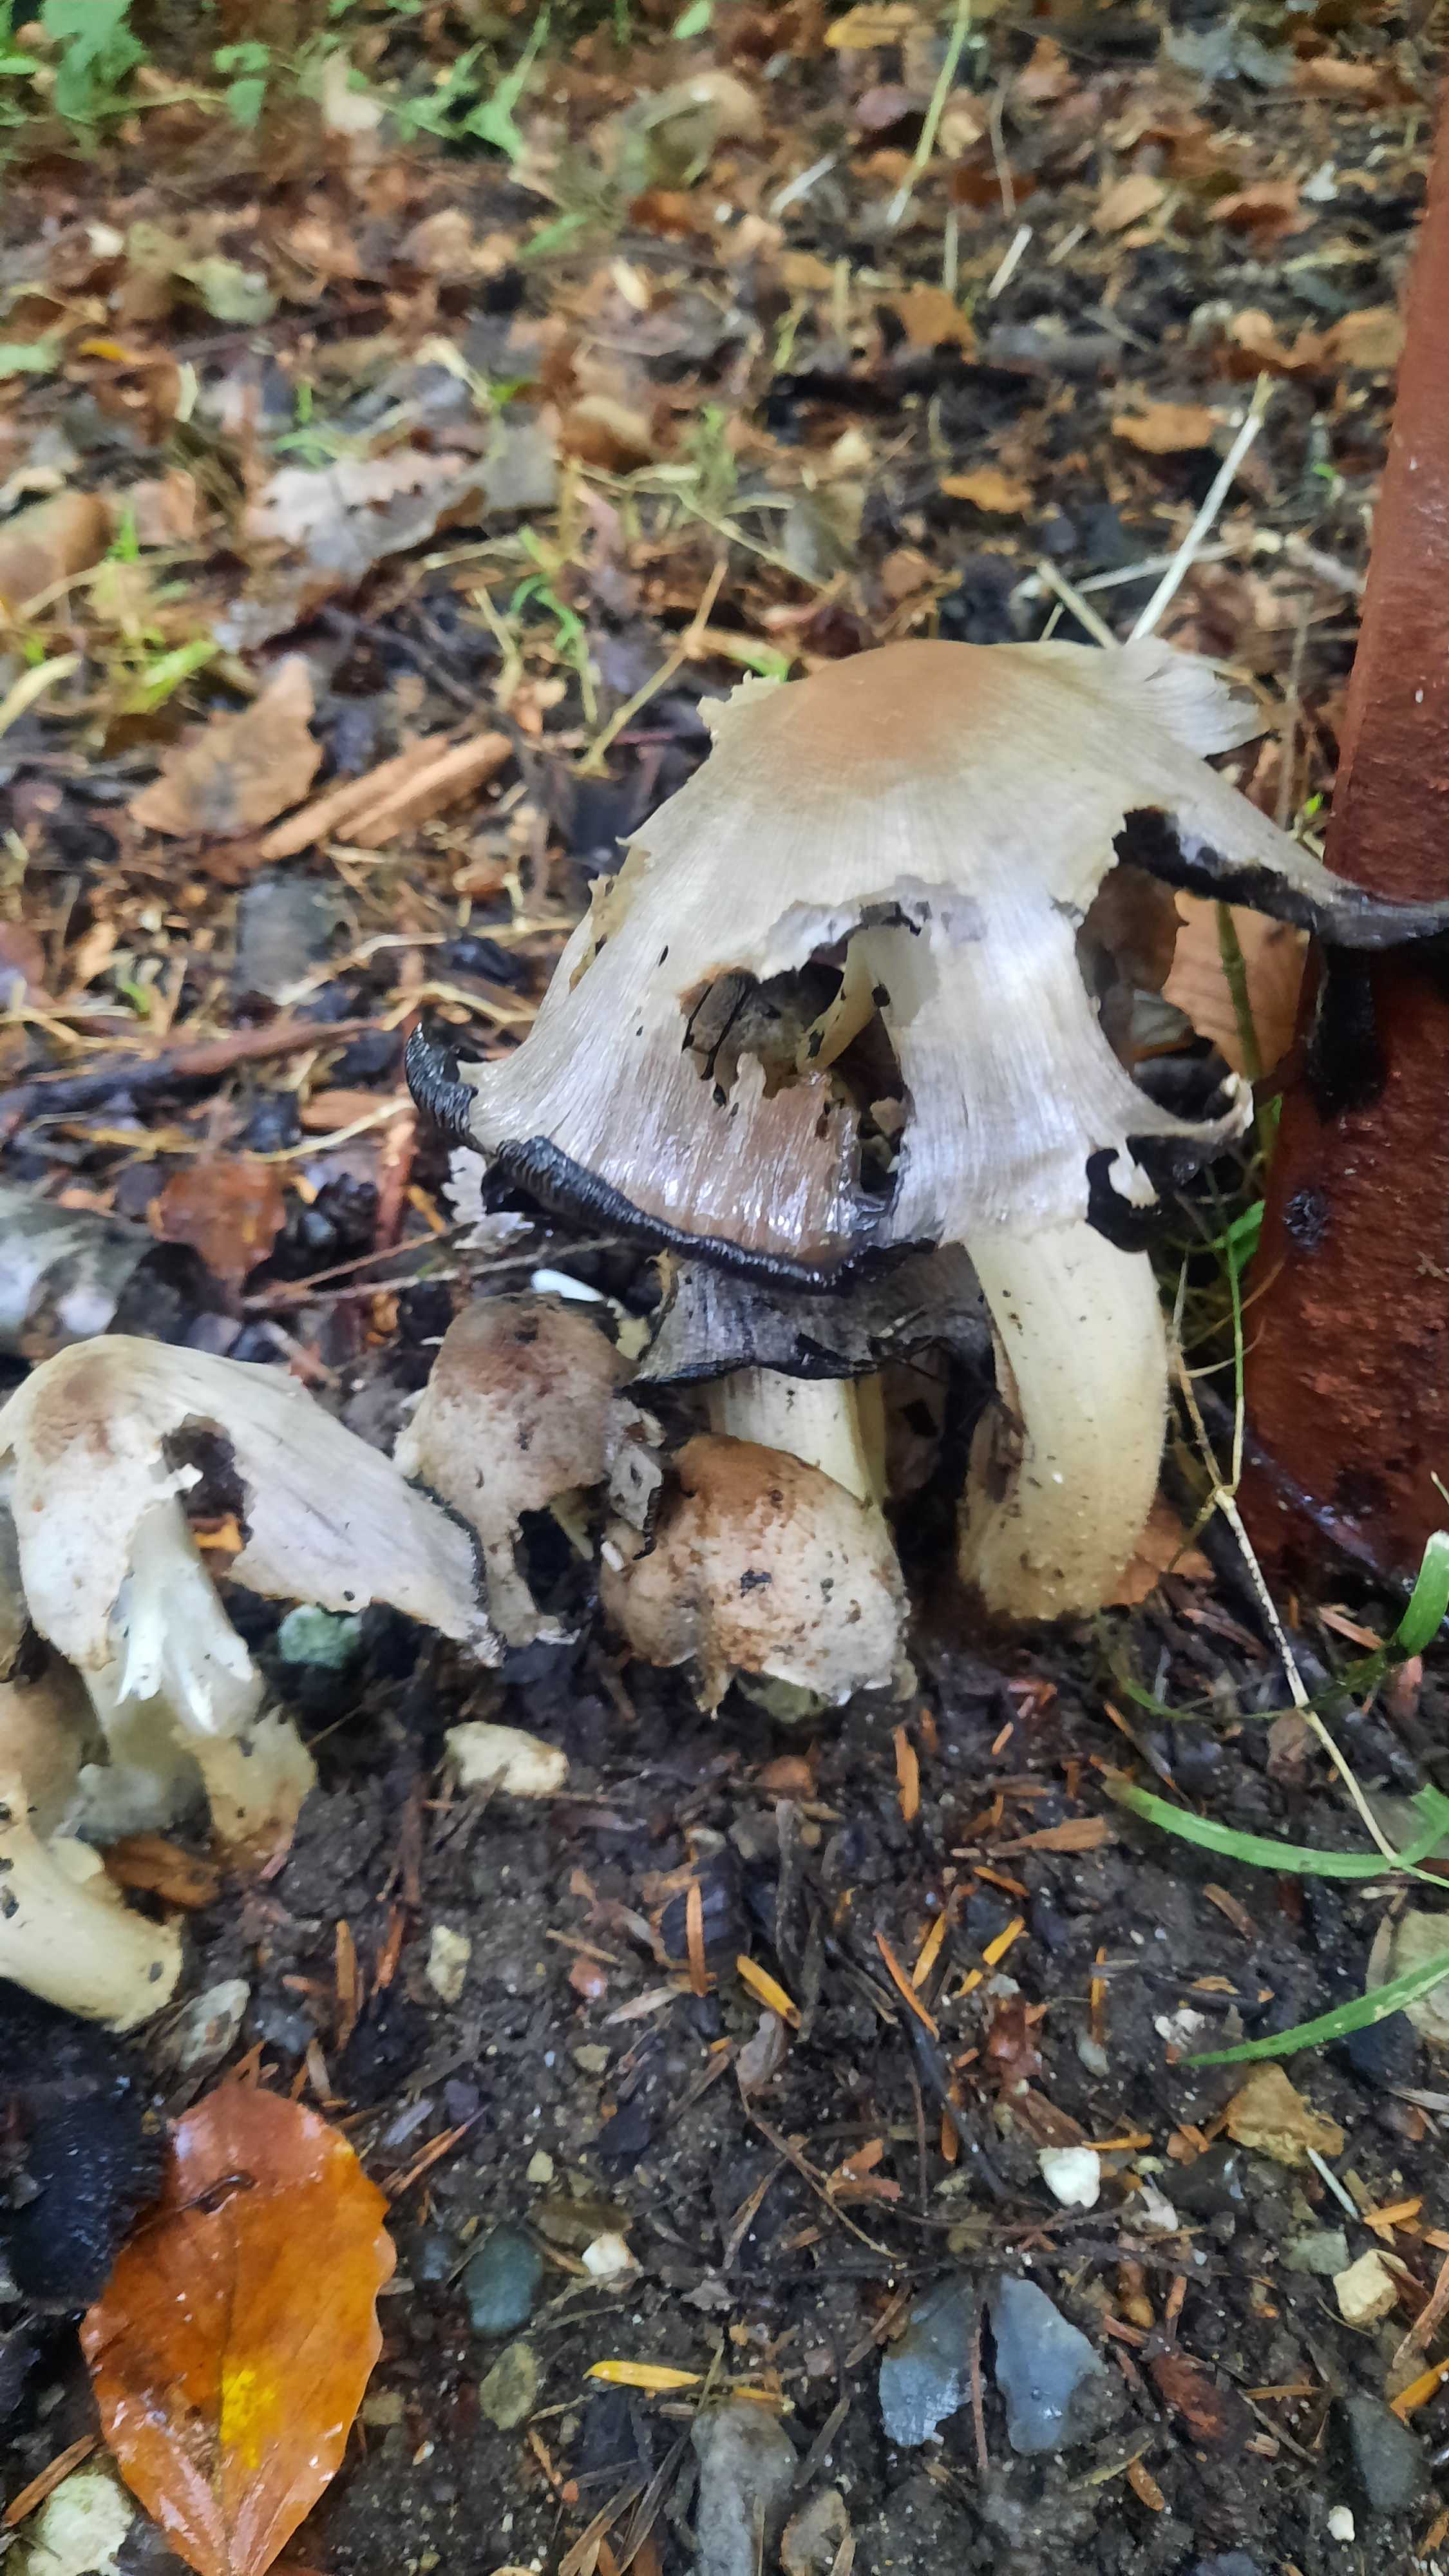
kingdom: Fungi
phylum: Basidiomycota
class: Agaricomycetes
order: Agaricales
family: Psathyrellaceae
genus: Coprinopsis
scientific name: Coprinopsis atramentaria
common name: almindelig blækhat
